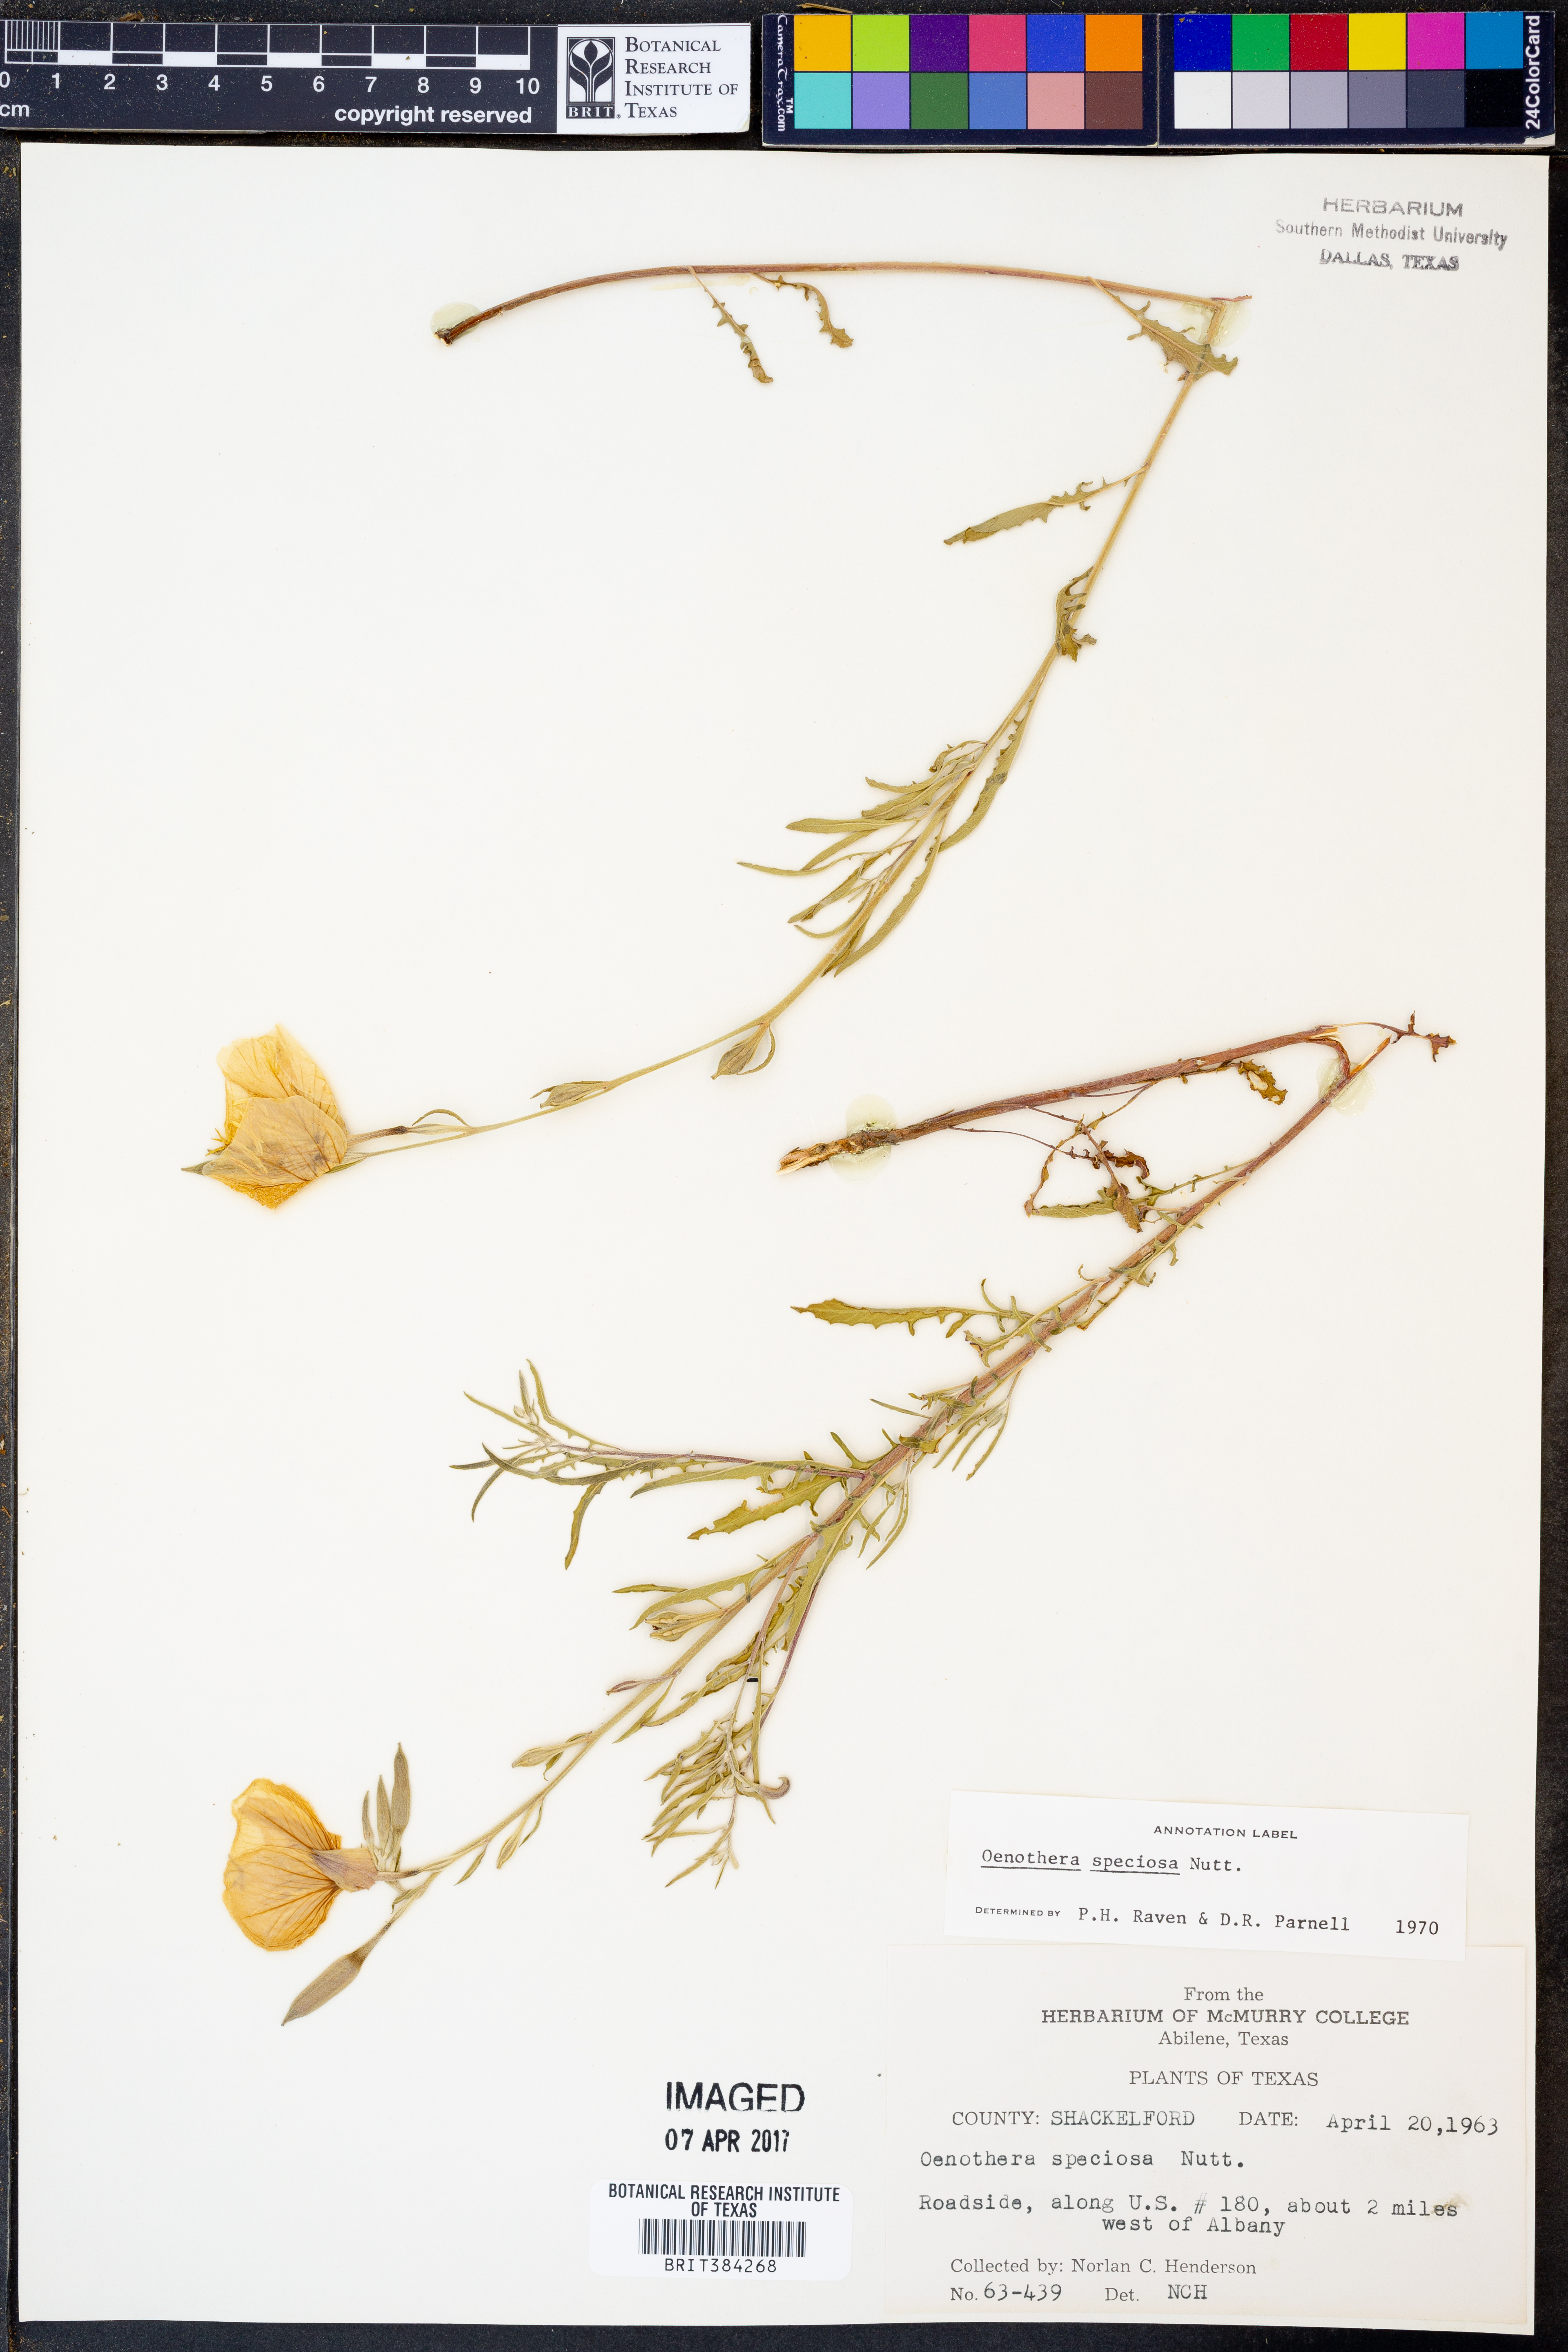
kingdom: Plantae
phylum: Tracheophyta
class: Magnoliopsida
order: Myrtales
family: Onagraceae
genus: Oenothera
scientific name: Oenothera speciosa
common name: White evening-primrose
